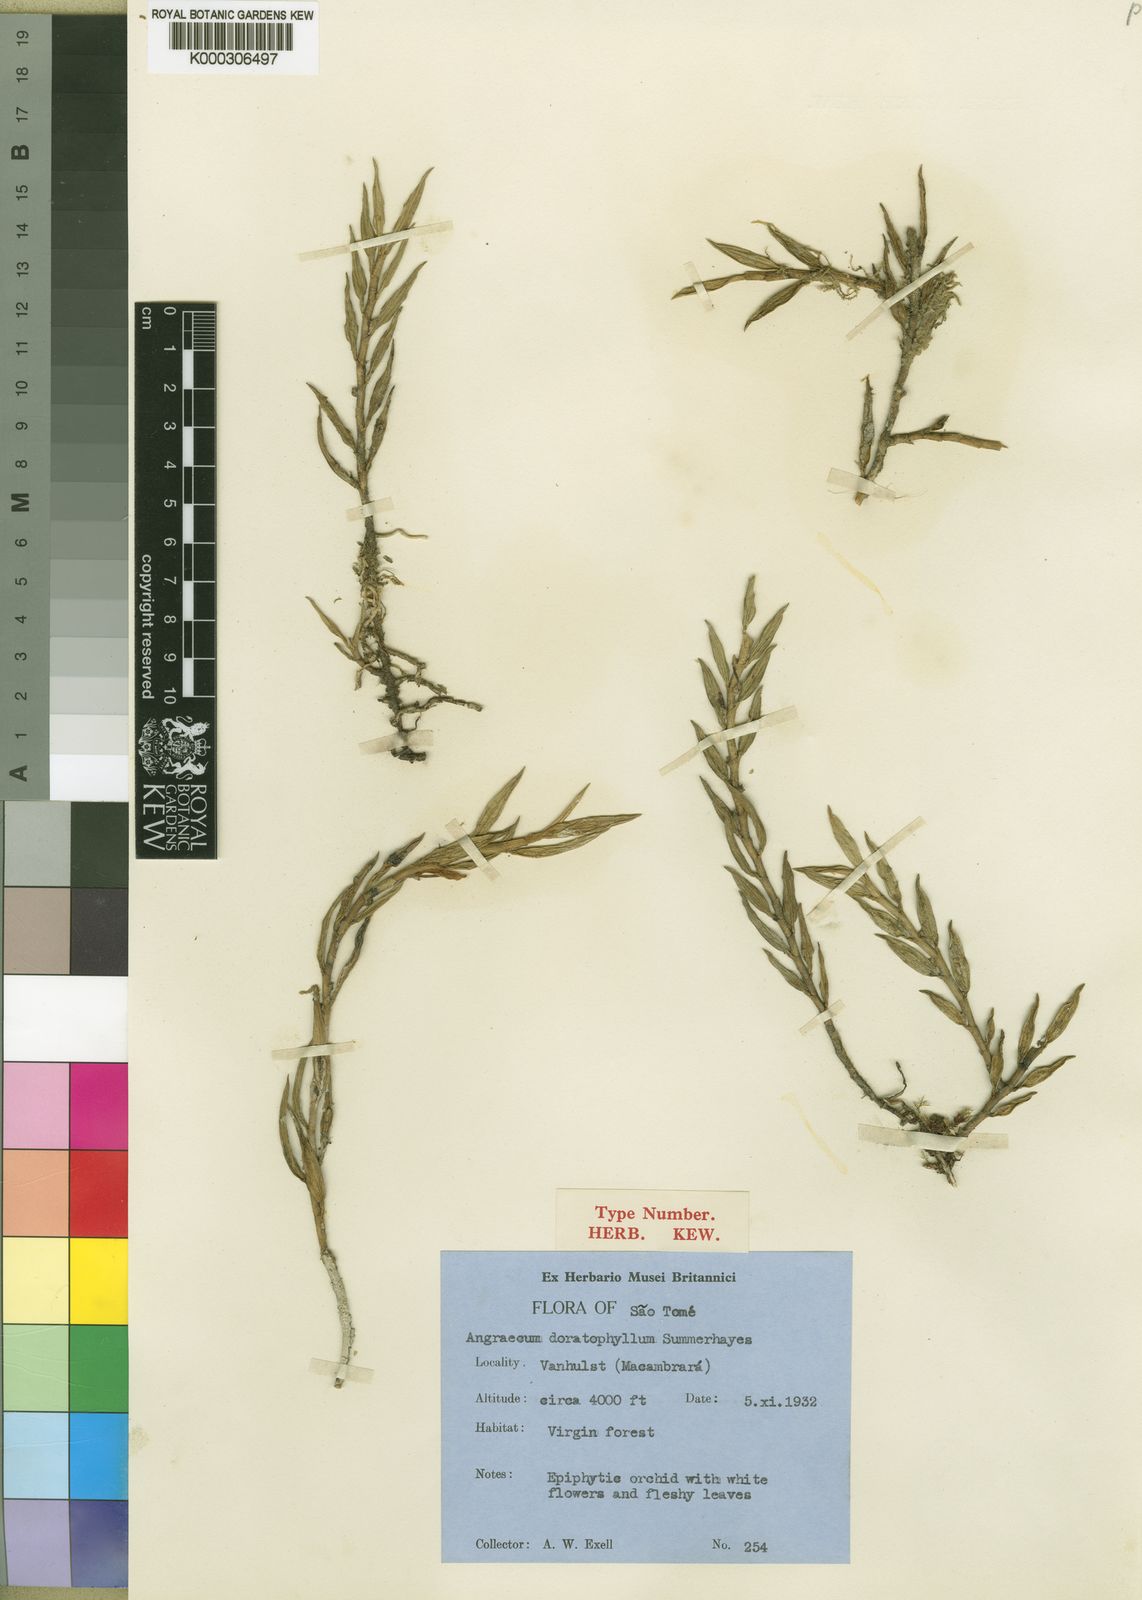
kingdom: Plantae
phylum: Tracheophyta
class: Liliopsida
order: Asparagales
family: Orchidaceae
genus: Afropectinariella
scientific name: Afropectinariella doratophylla
